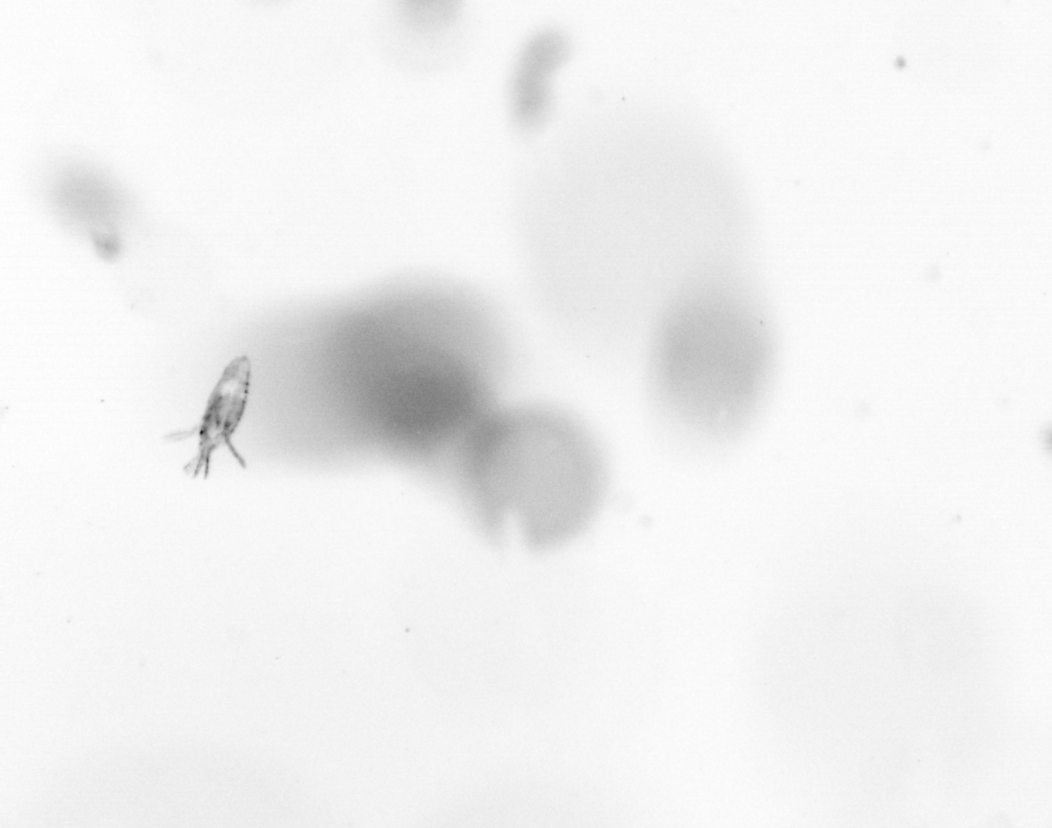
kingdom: Animalia
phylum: Arthropoda
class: Copepoda
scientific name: Copepoda
